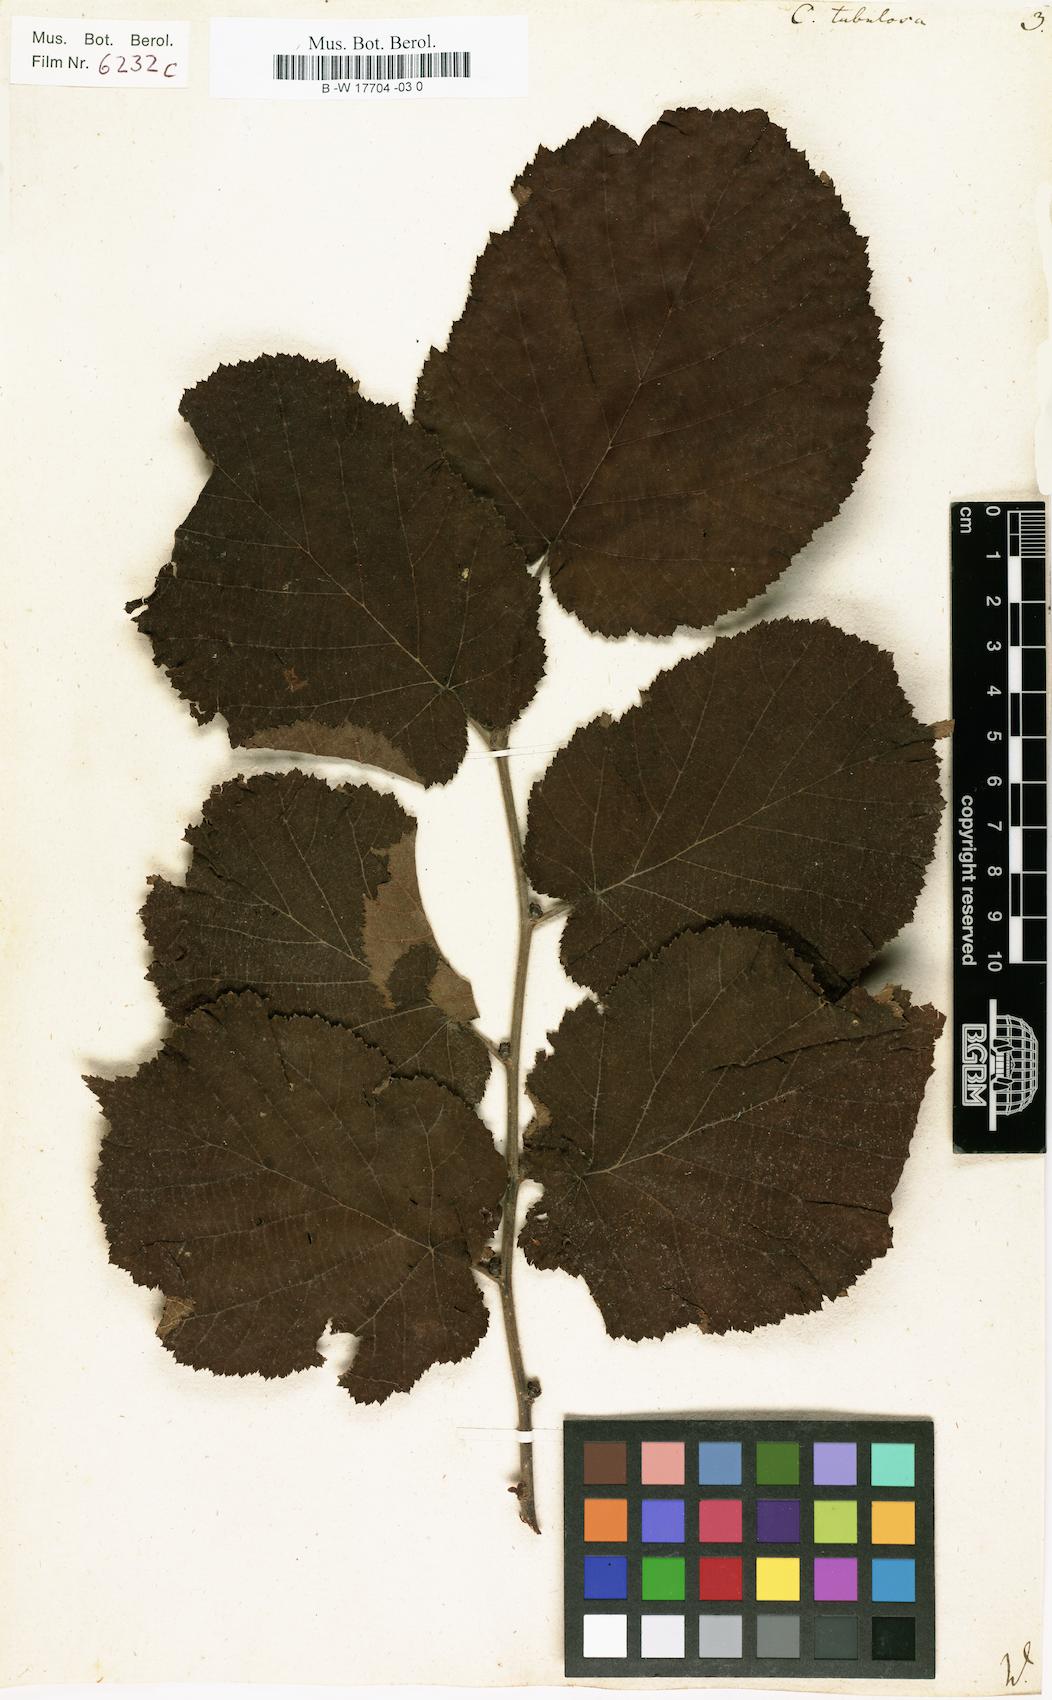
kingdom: Plantae
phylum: Tracheophyta
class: Magnoliopsida
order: Fagales
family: Betulaceae
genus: Corylus
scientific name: Corylus maxima
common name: Filbert
